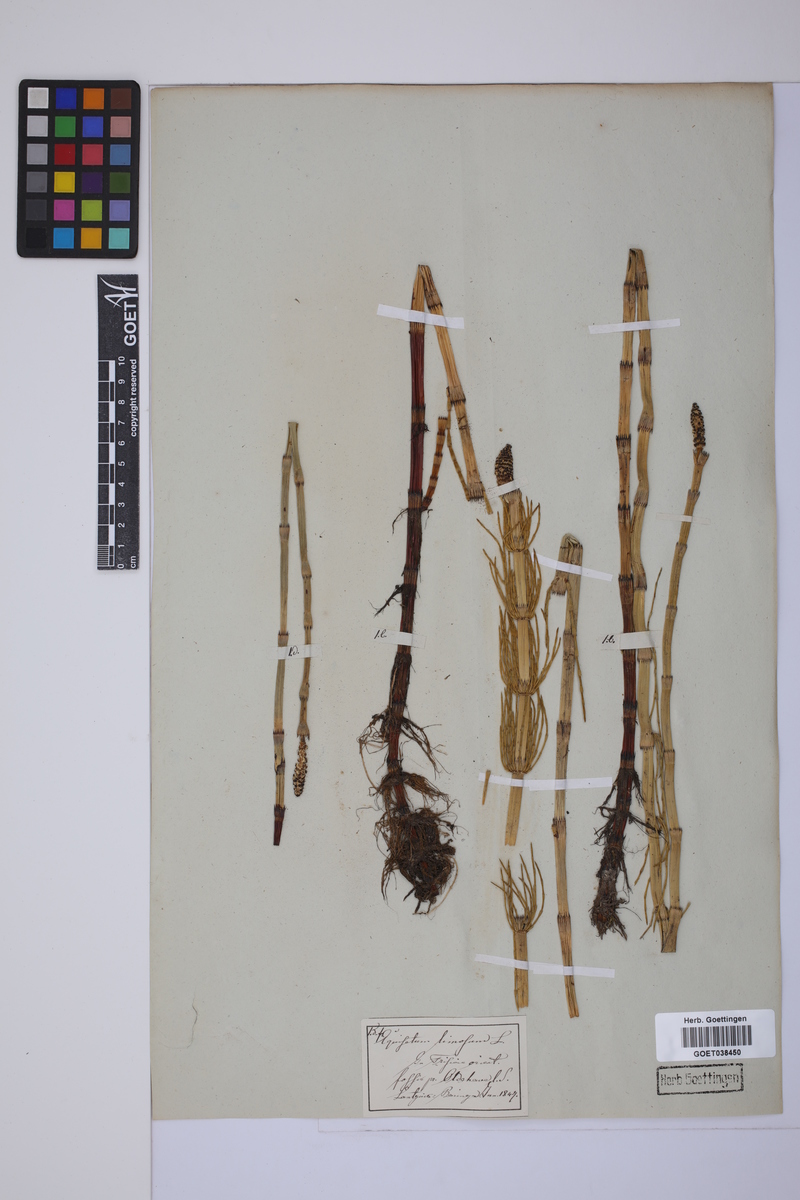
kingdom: Plantae
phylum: Tracheophyta
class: Polypodiopsida
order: Equisetales
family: Equisetaceae
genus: Equisetum
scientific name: Equisetum fluviatile
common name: Water horsetail
